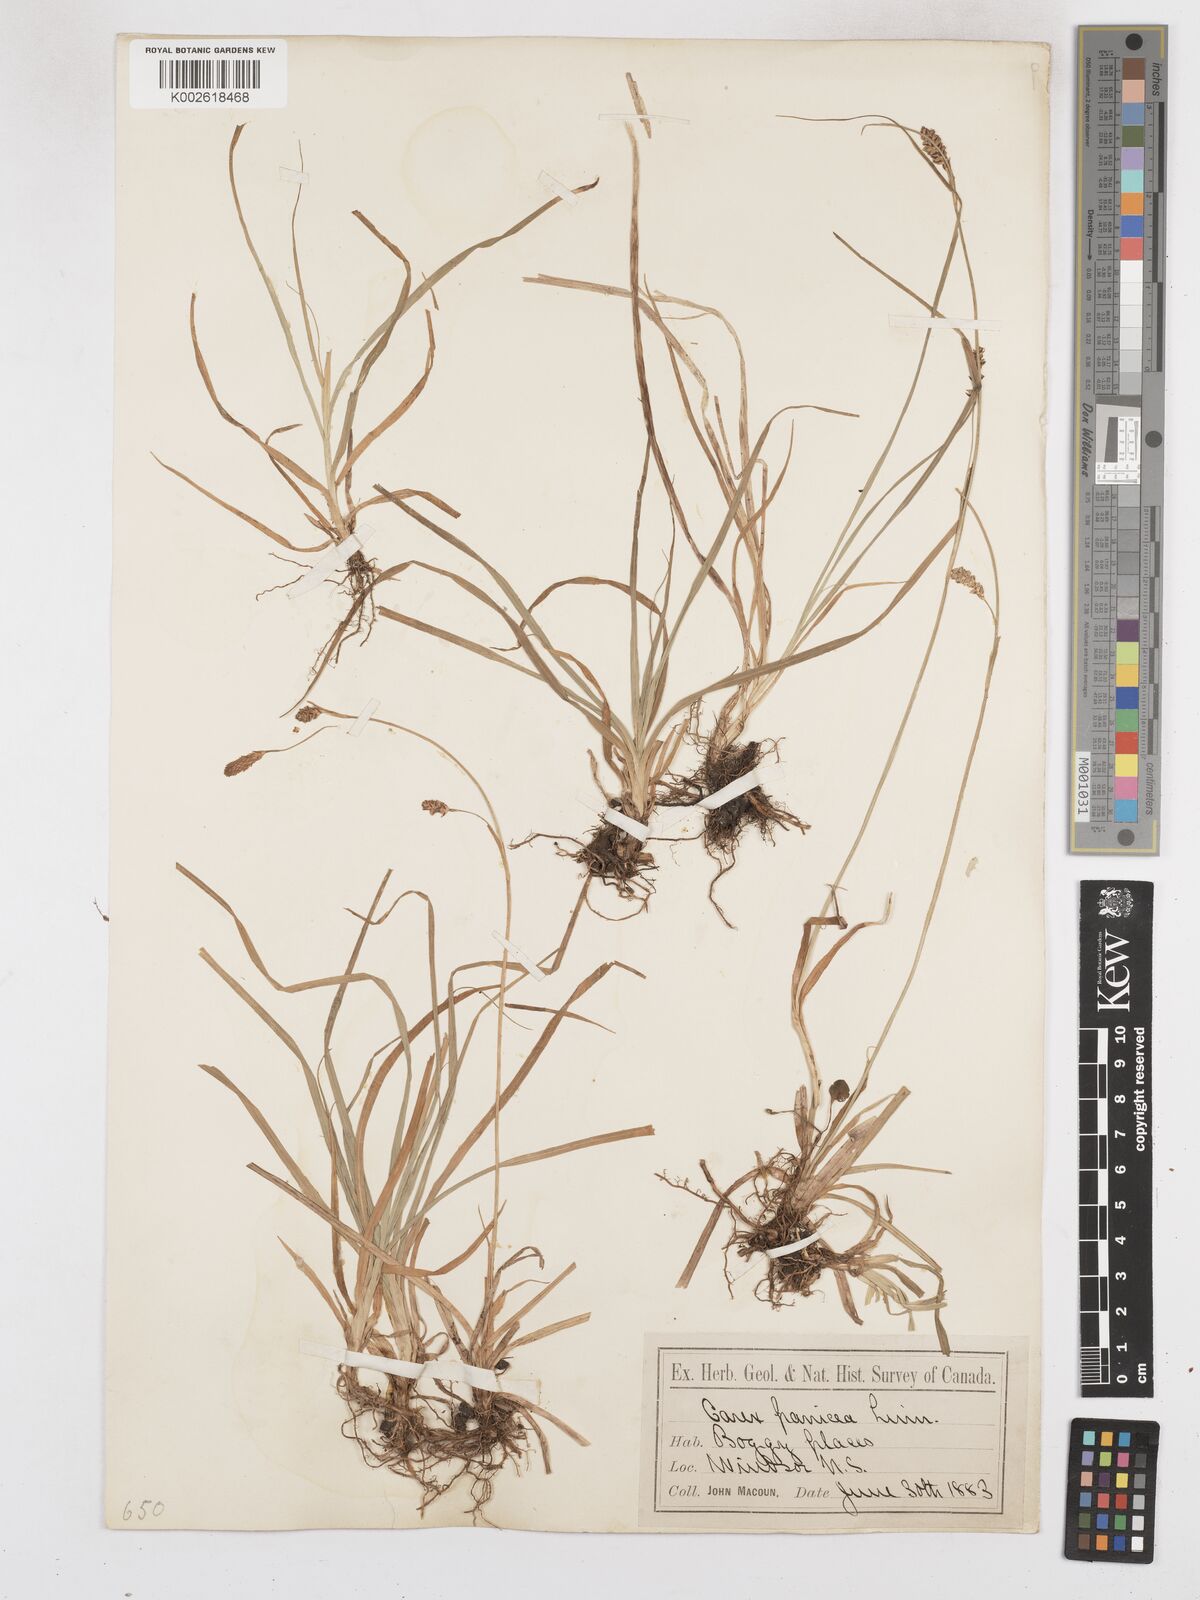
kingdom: Plantae
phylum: Tracheophyta
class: Liliopsida
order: Poales
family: Cyperaceae
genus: Carex
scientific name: Carex panicea
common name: Carnation sedge
